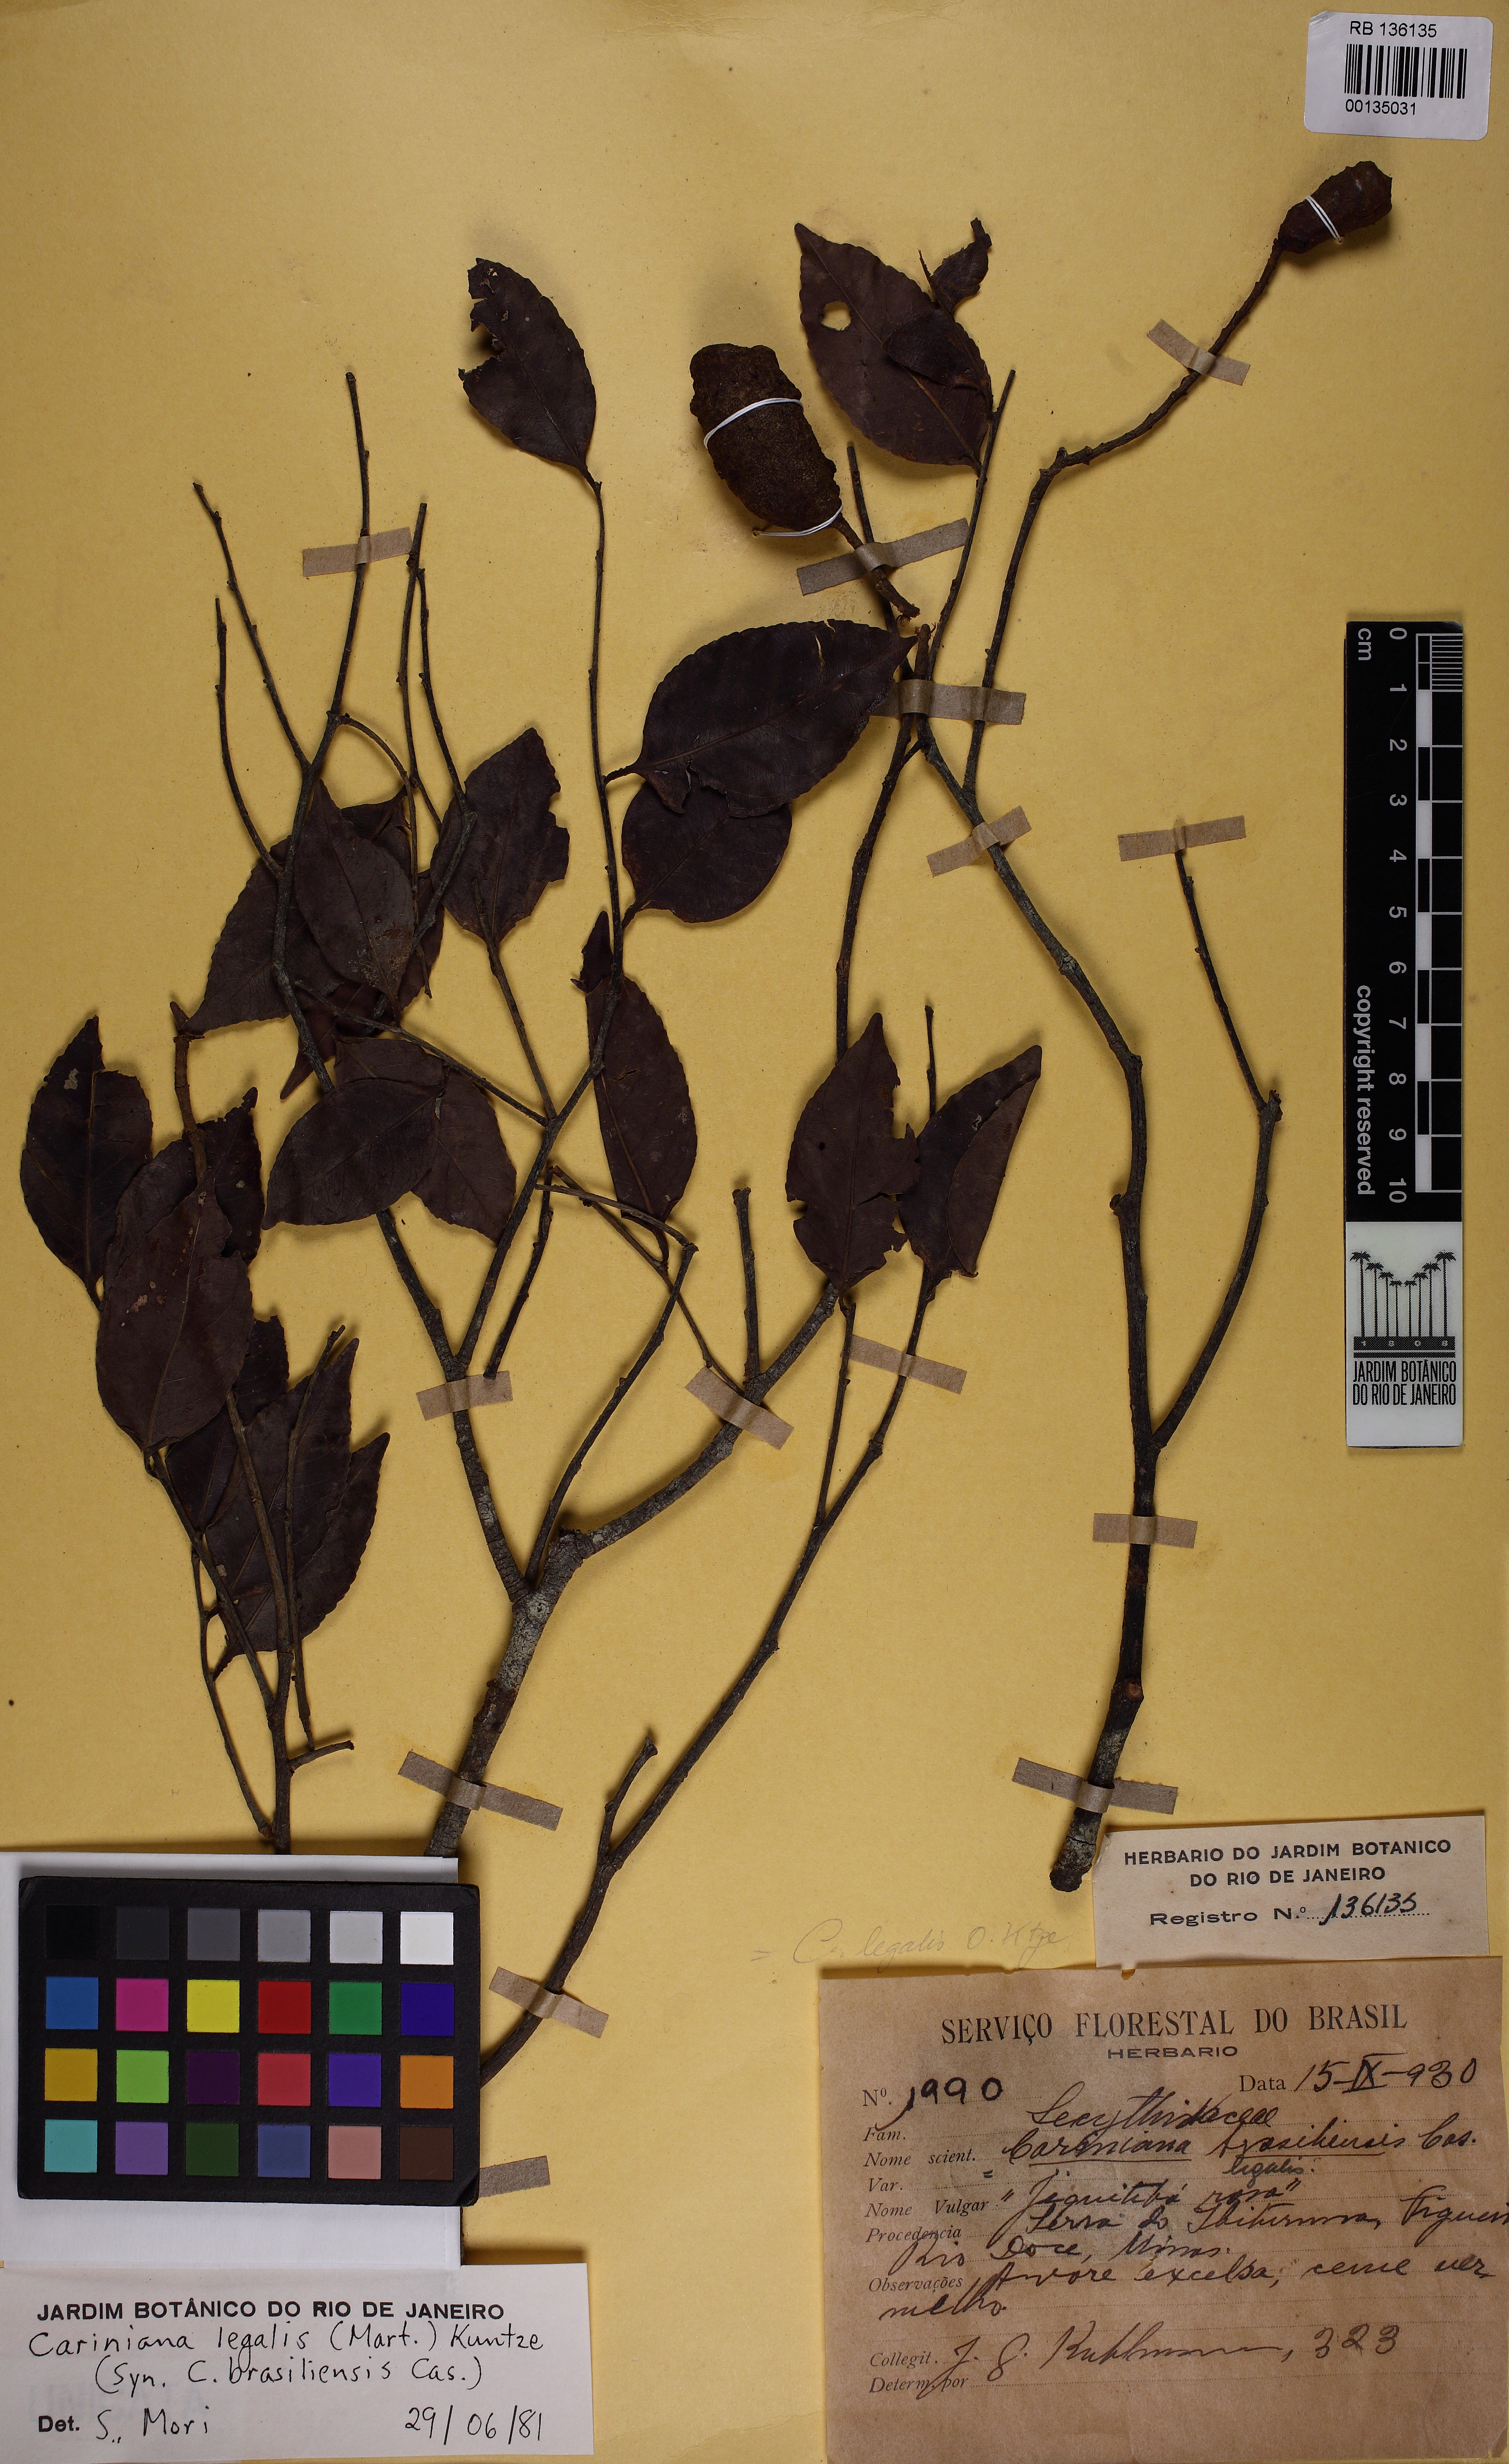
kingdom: Plantae
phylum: Tracheophyta
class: Magnoliopsida
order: Ericales
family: Lecythidaceae
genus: Cariniana
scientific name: Cariniana legalis
